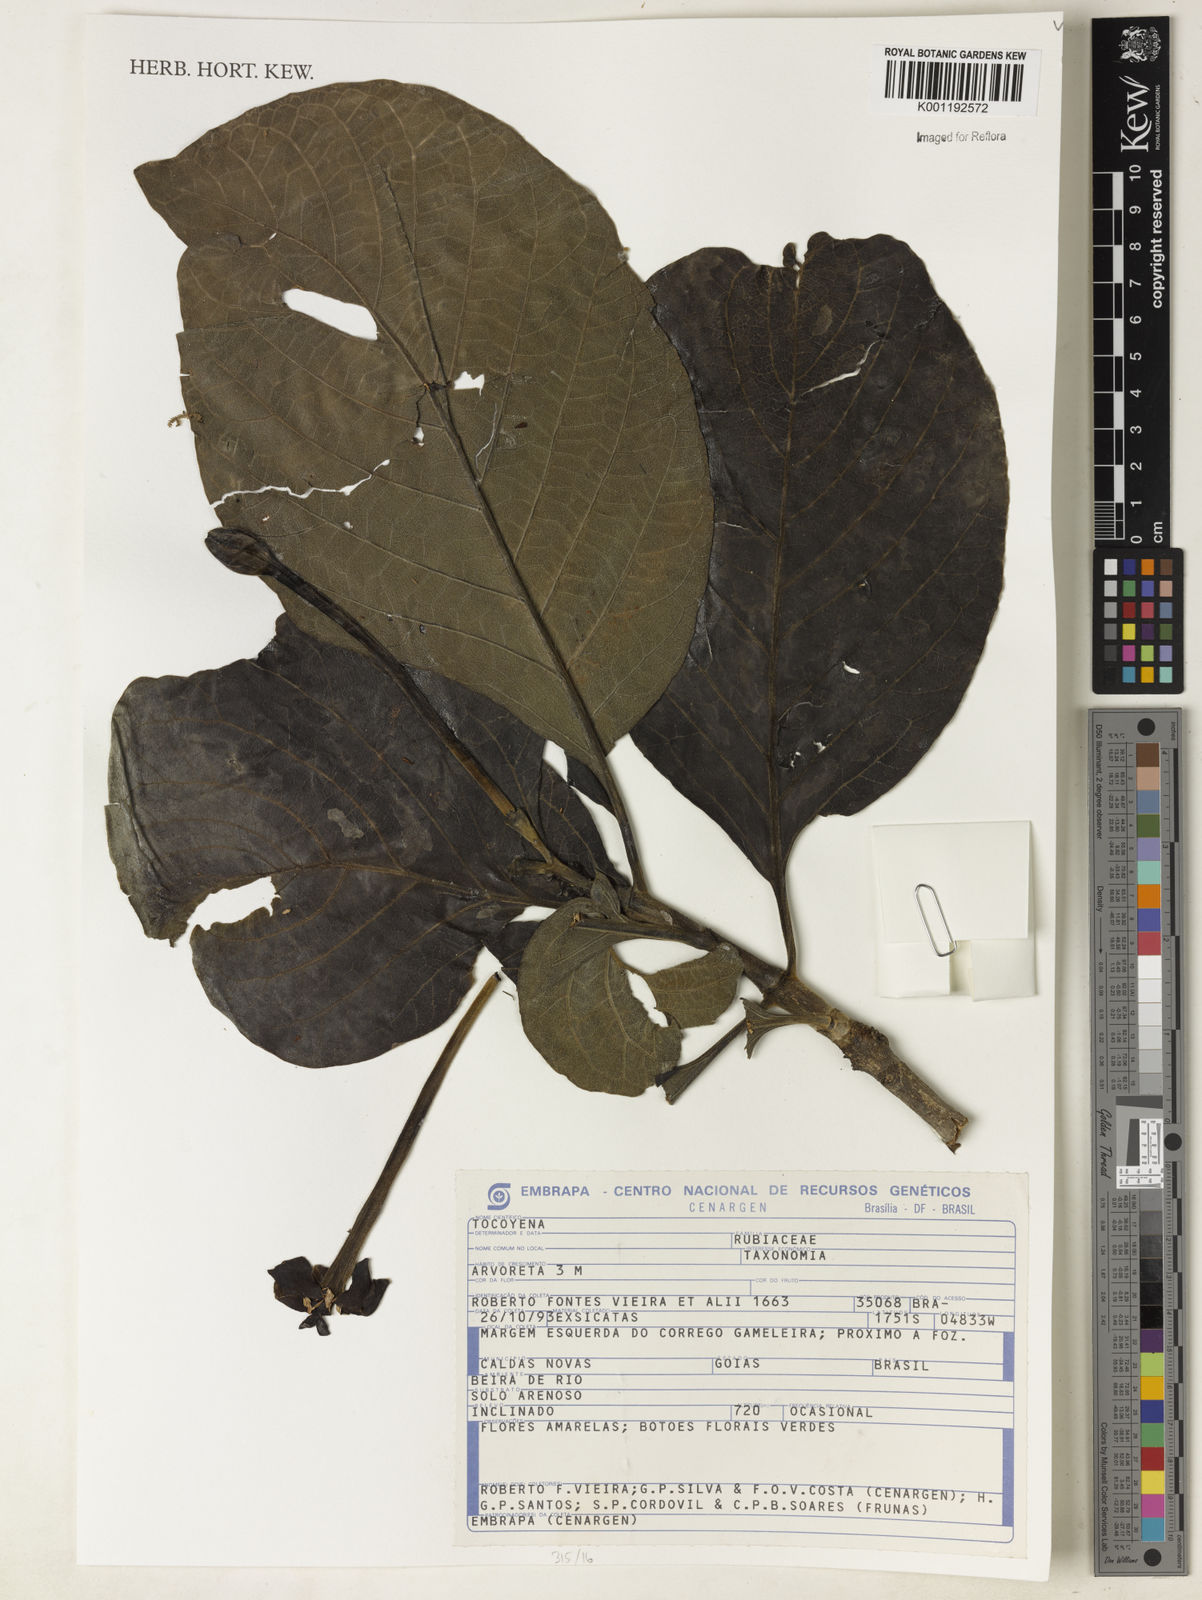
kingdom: Plantae
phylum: Tracheophyta
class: Magnoliopsida
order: Gentianales
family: Rubiaceae
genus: Tocoyena
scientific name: Tocoyena
